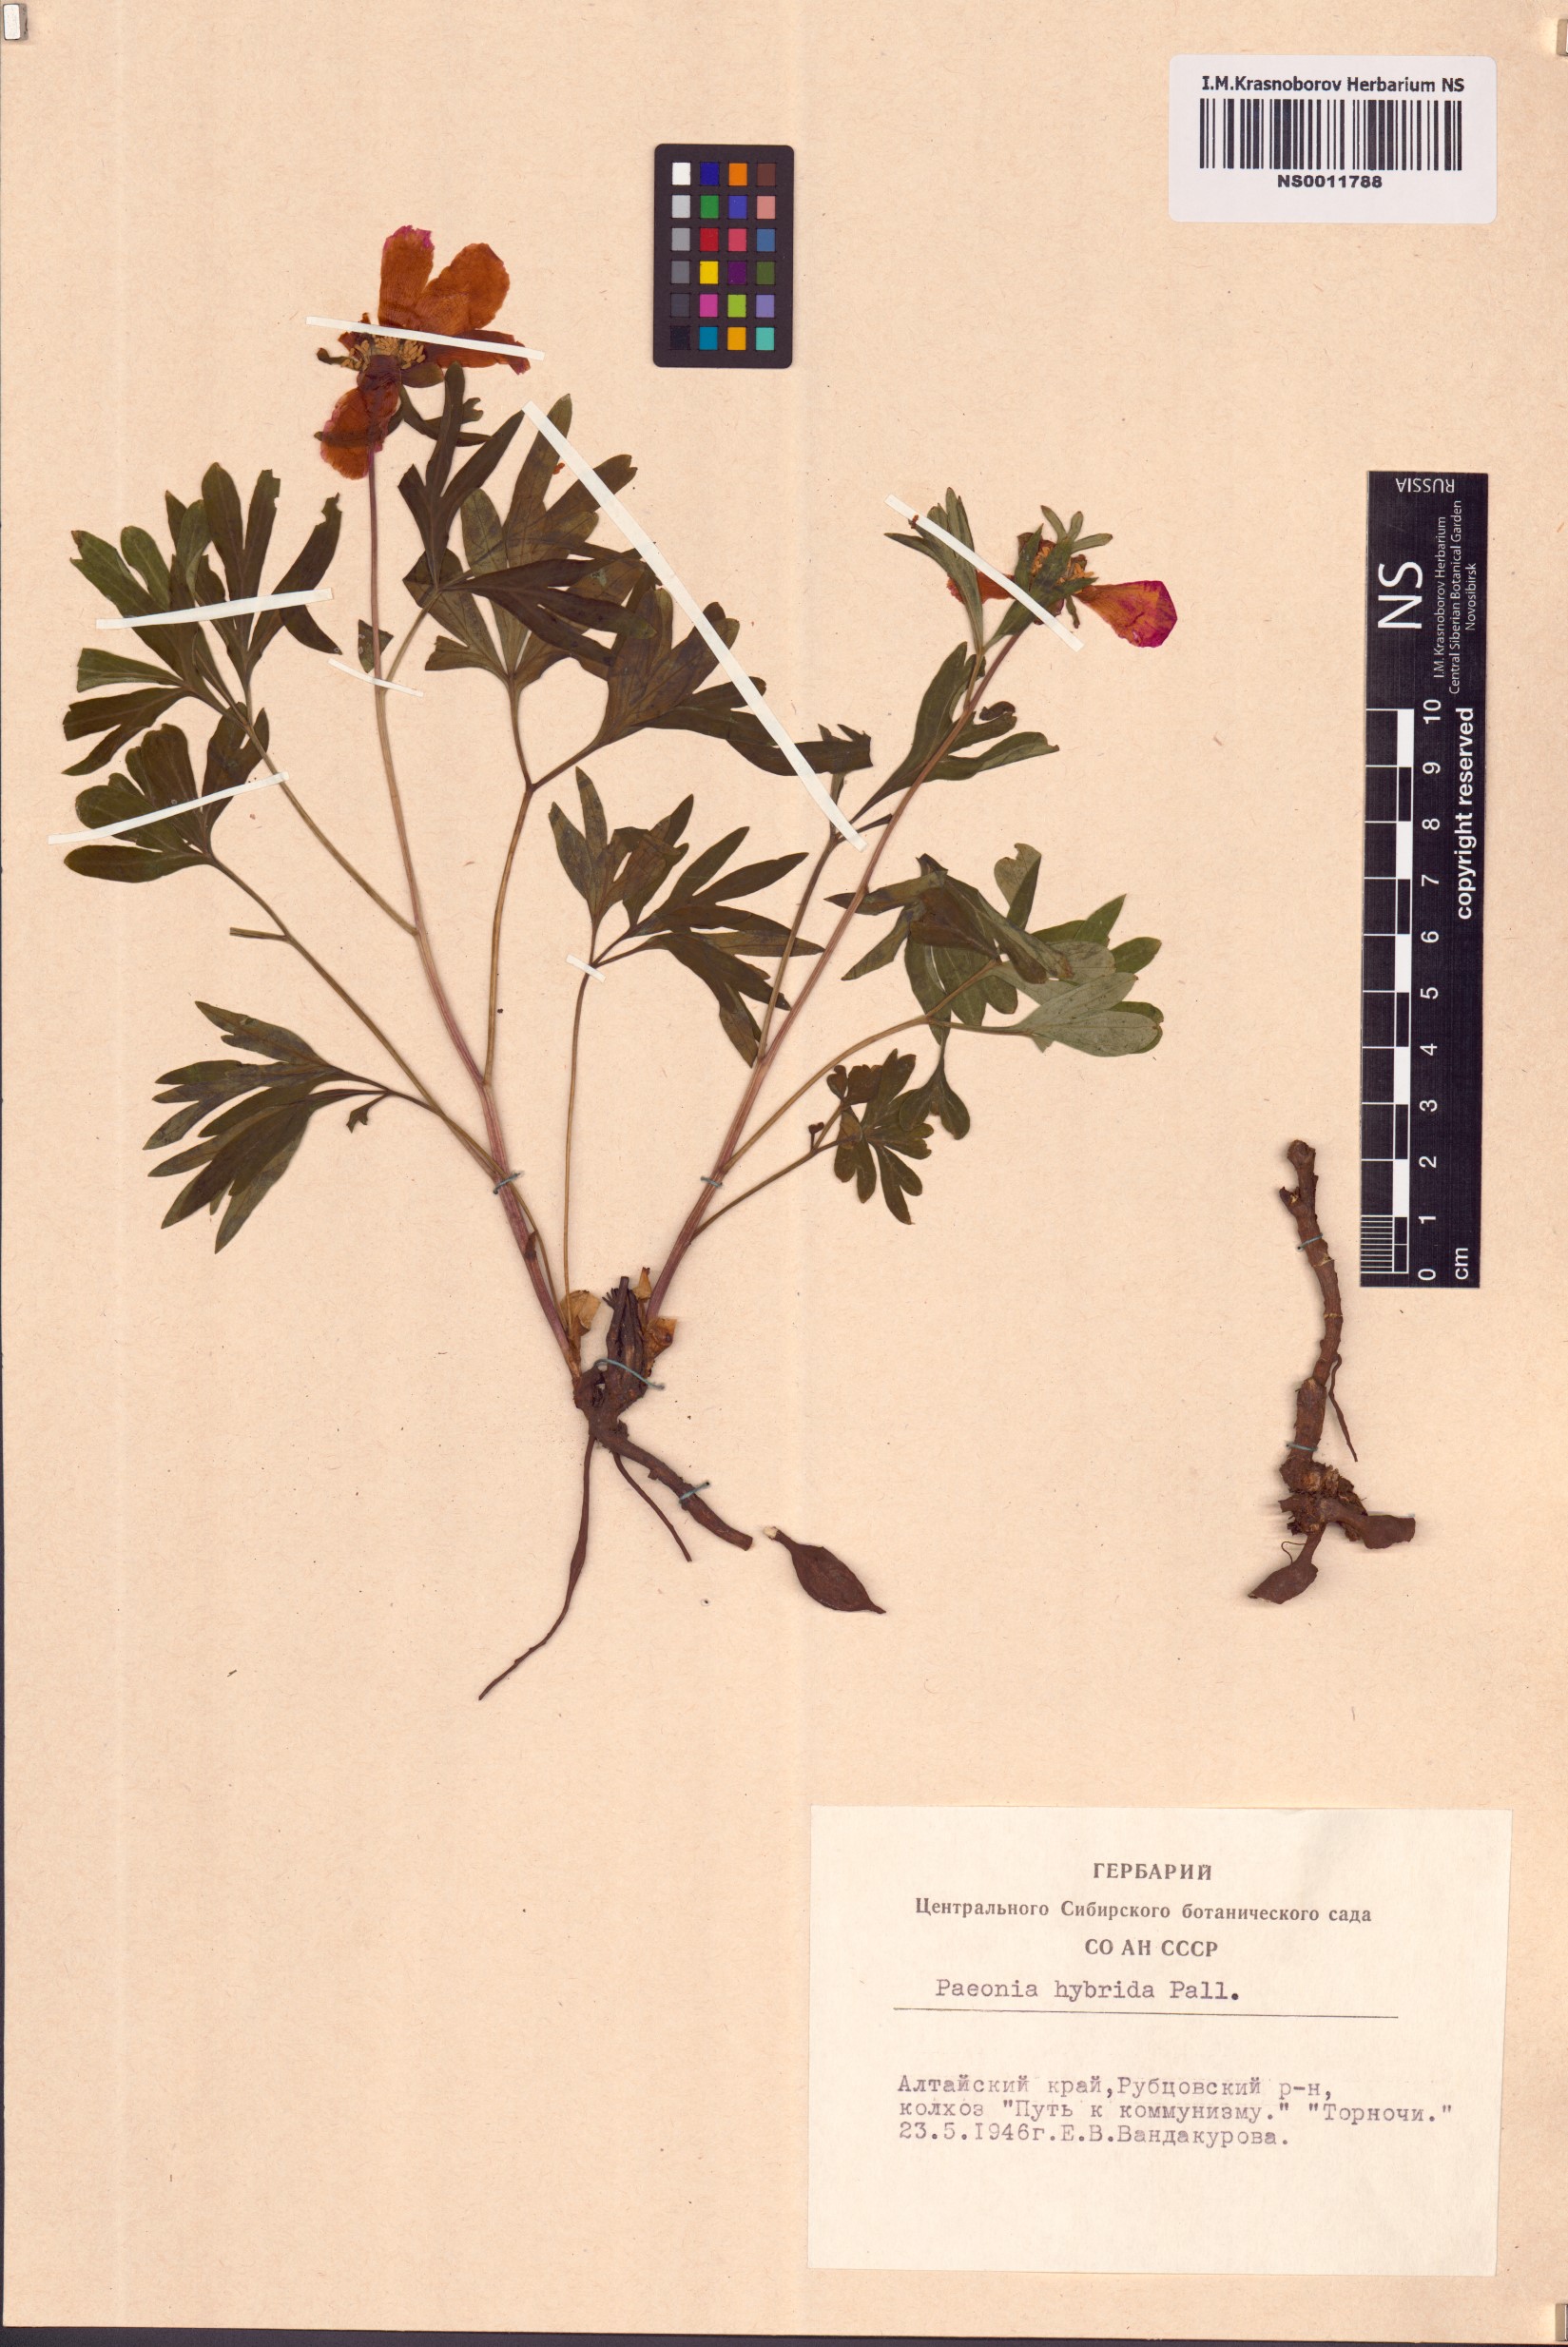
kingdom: Plantae
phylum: Tracheophyta
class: Magnoliopsida
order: Saxifragales
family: Paeoniaceae
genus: Paeonia
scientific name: Paeonia
